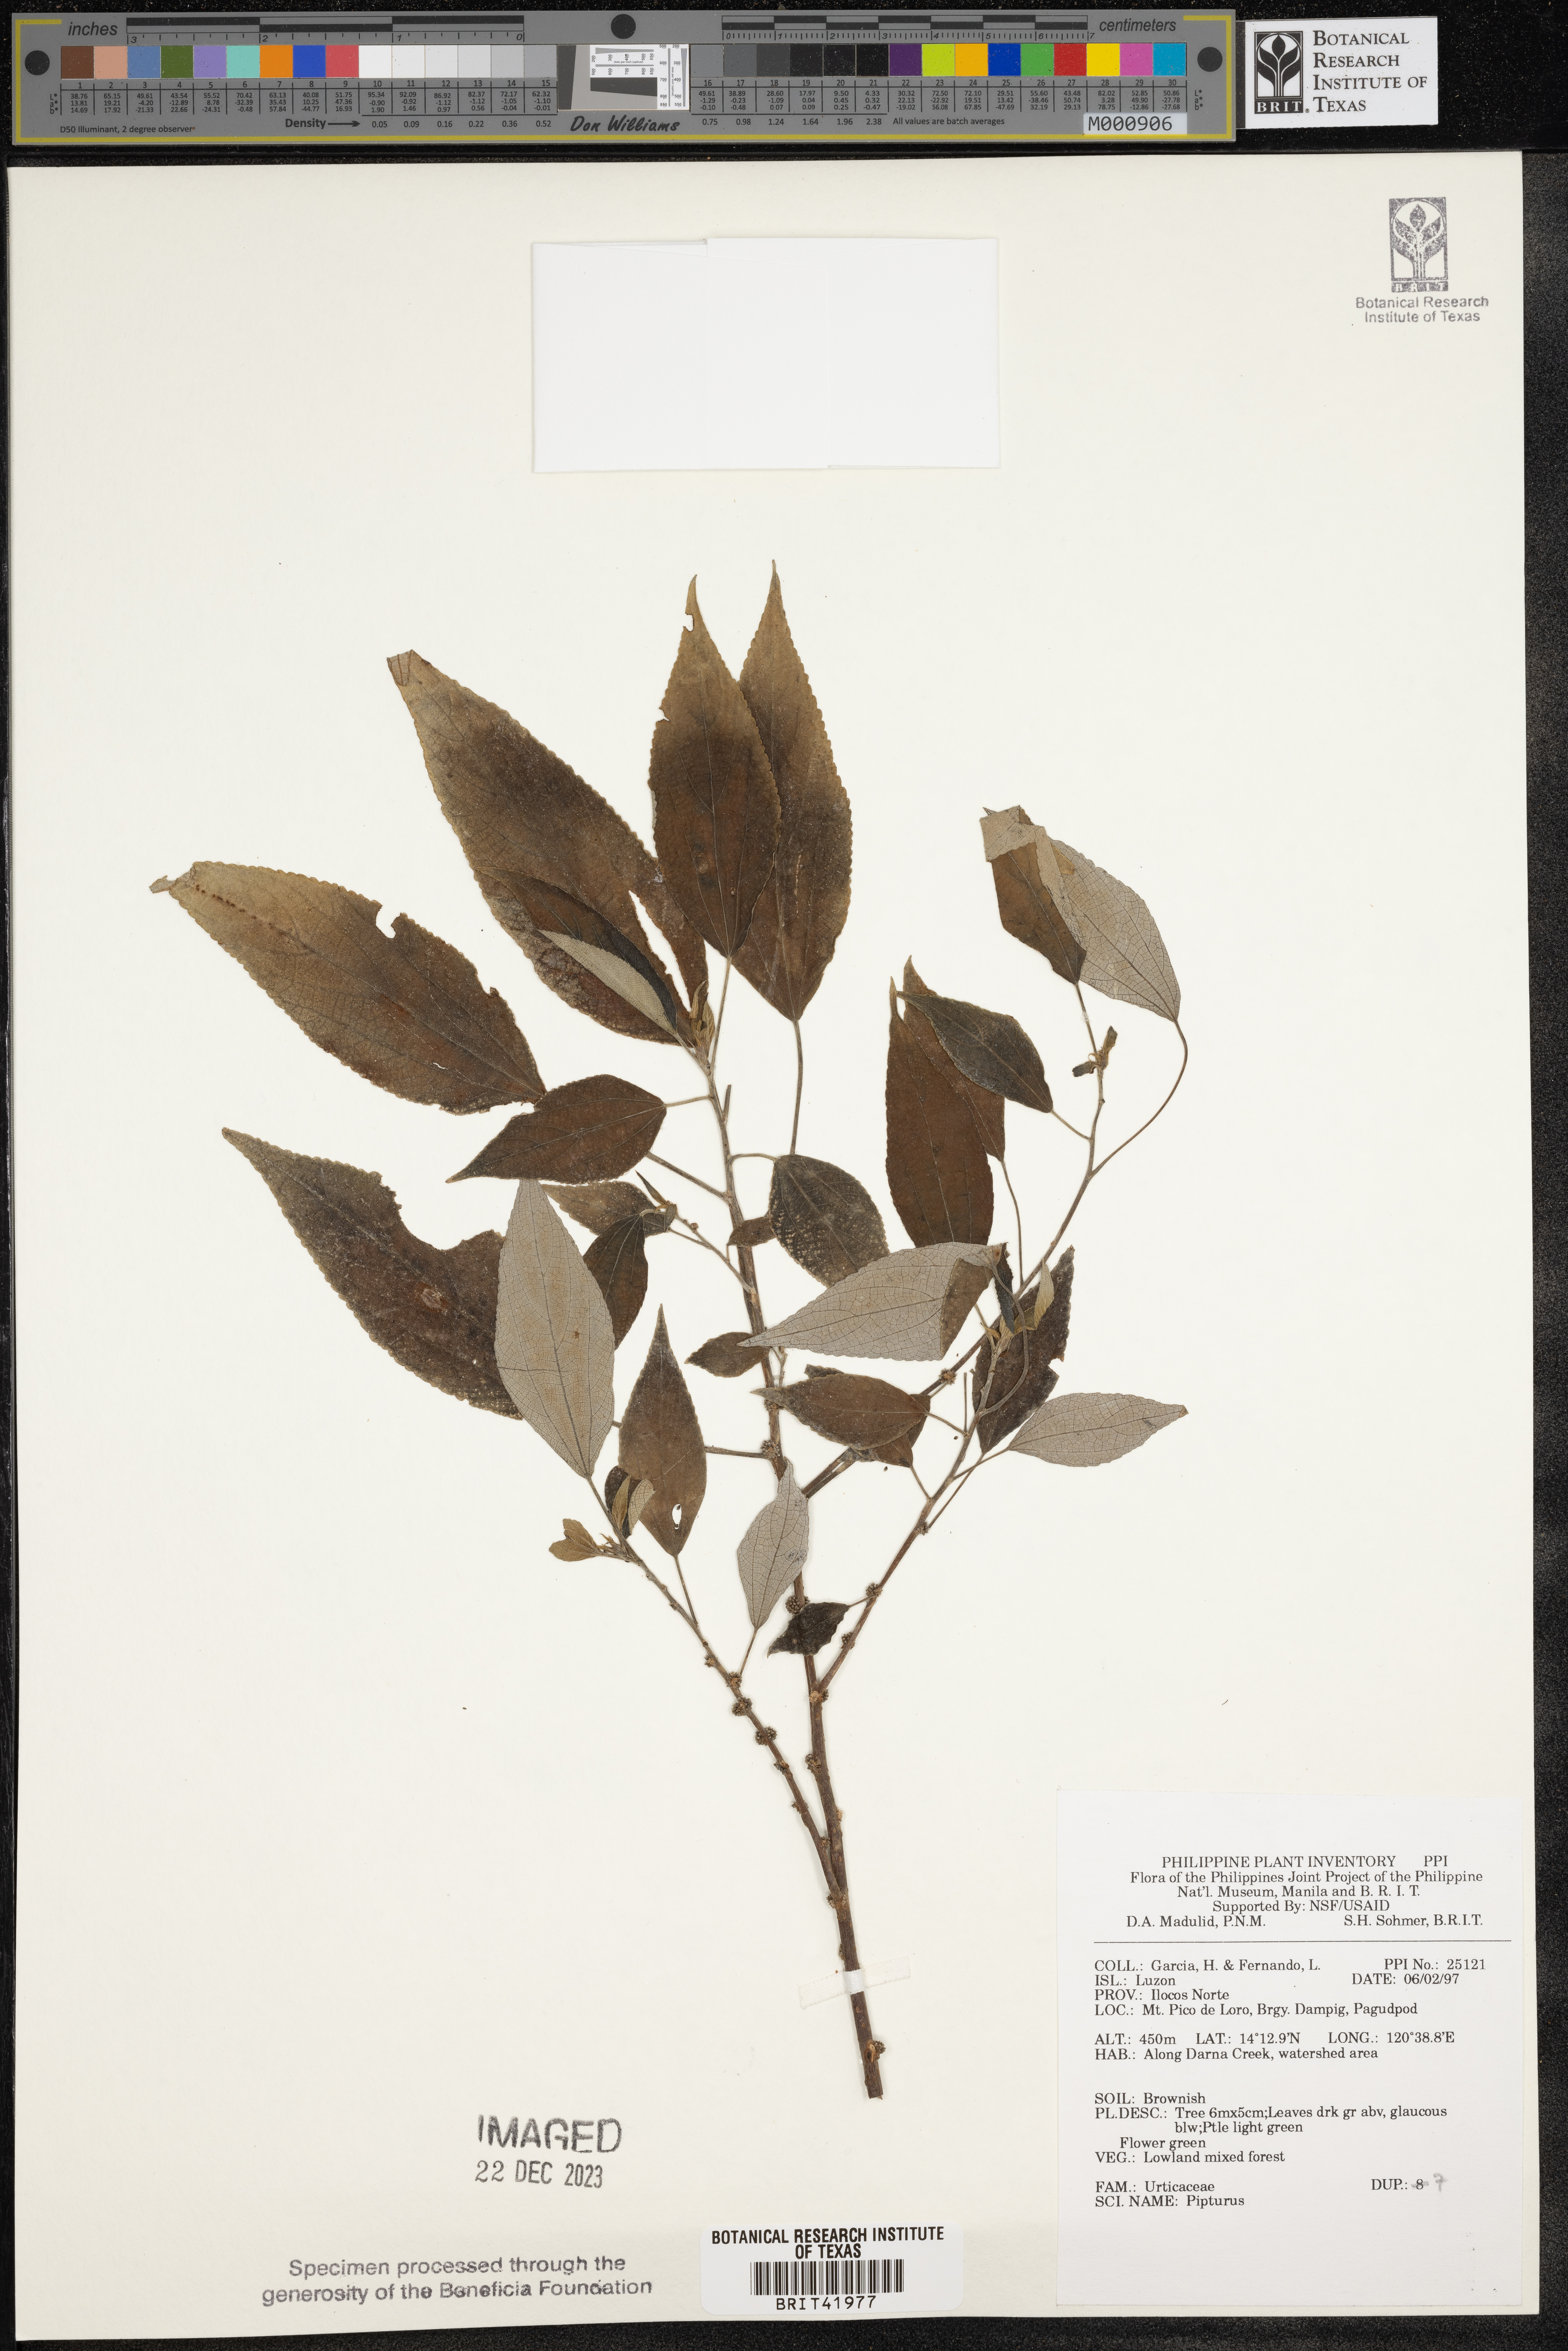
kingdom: Plantae
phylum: Tracheophyta
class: Magnoliopsida
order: Rosales
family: Urticaceae
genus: Pipturus
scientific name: Pipturus
